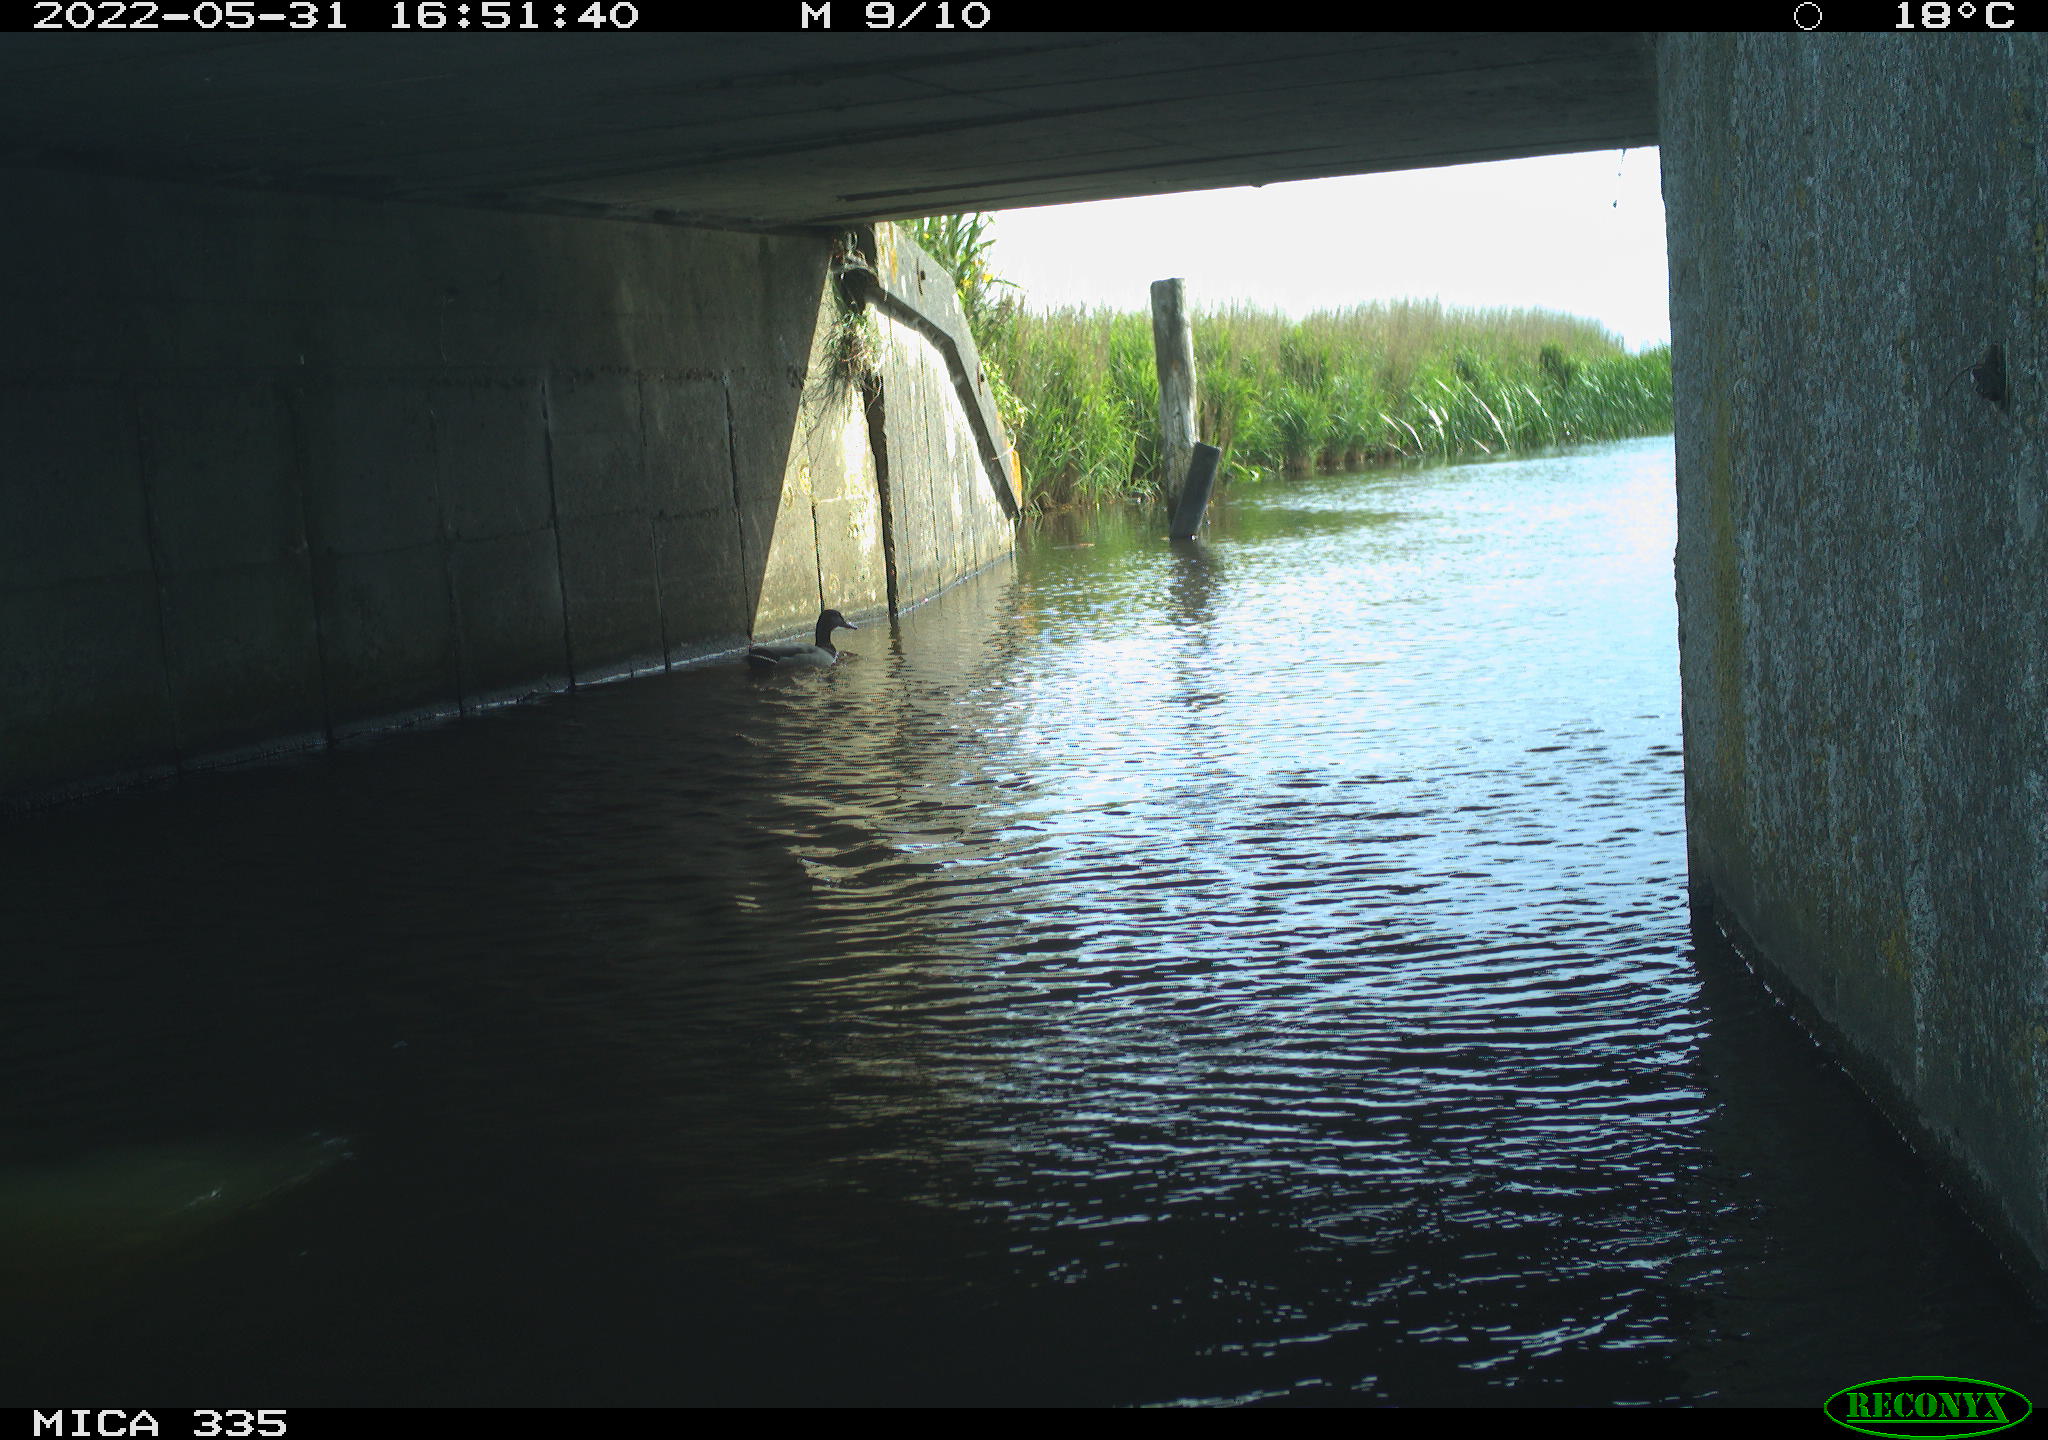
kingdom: Animalia
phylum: Chordata
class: Aves
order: Anseriformes
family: Anatidae
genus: Anas
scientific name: Anas platyrhynchos
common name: Mallard
